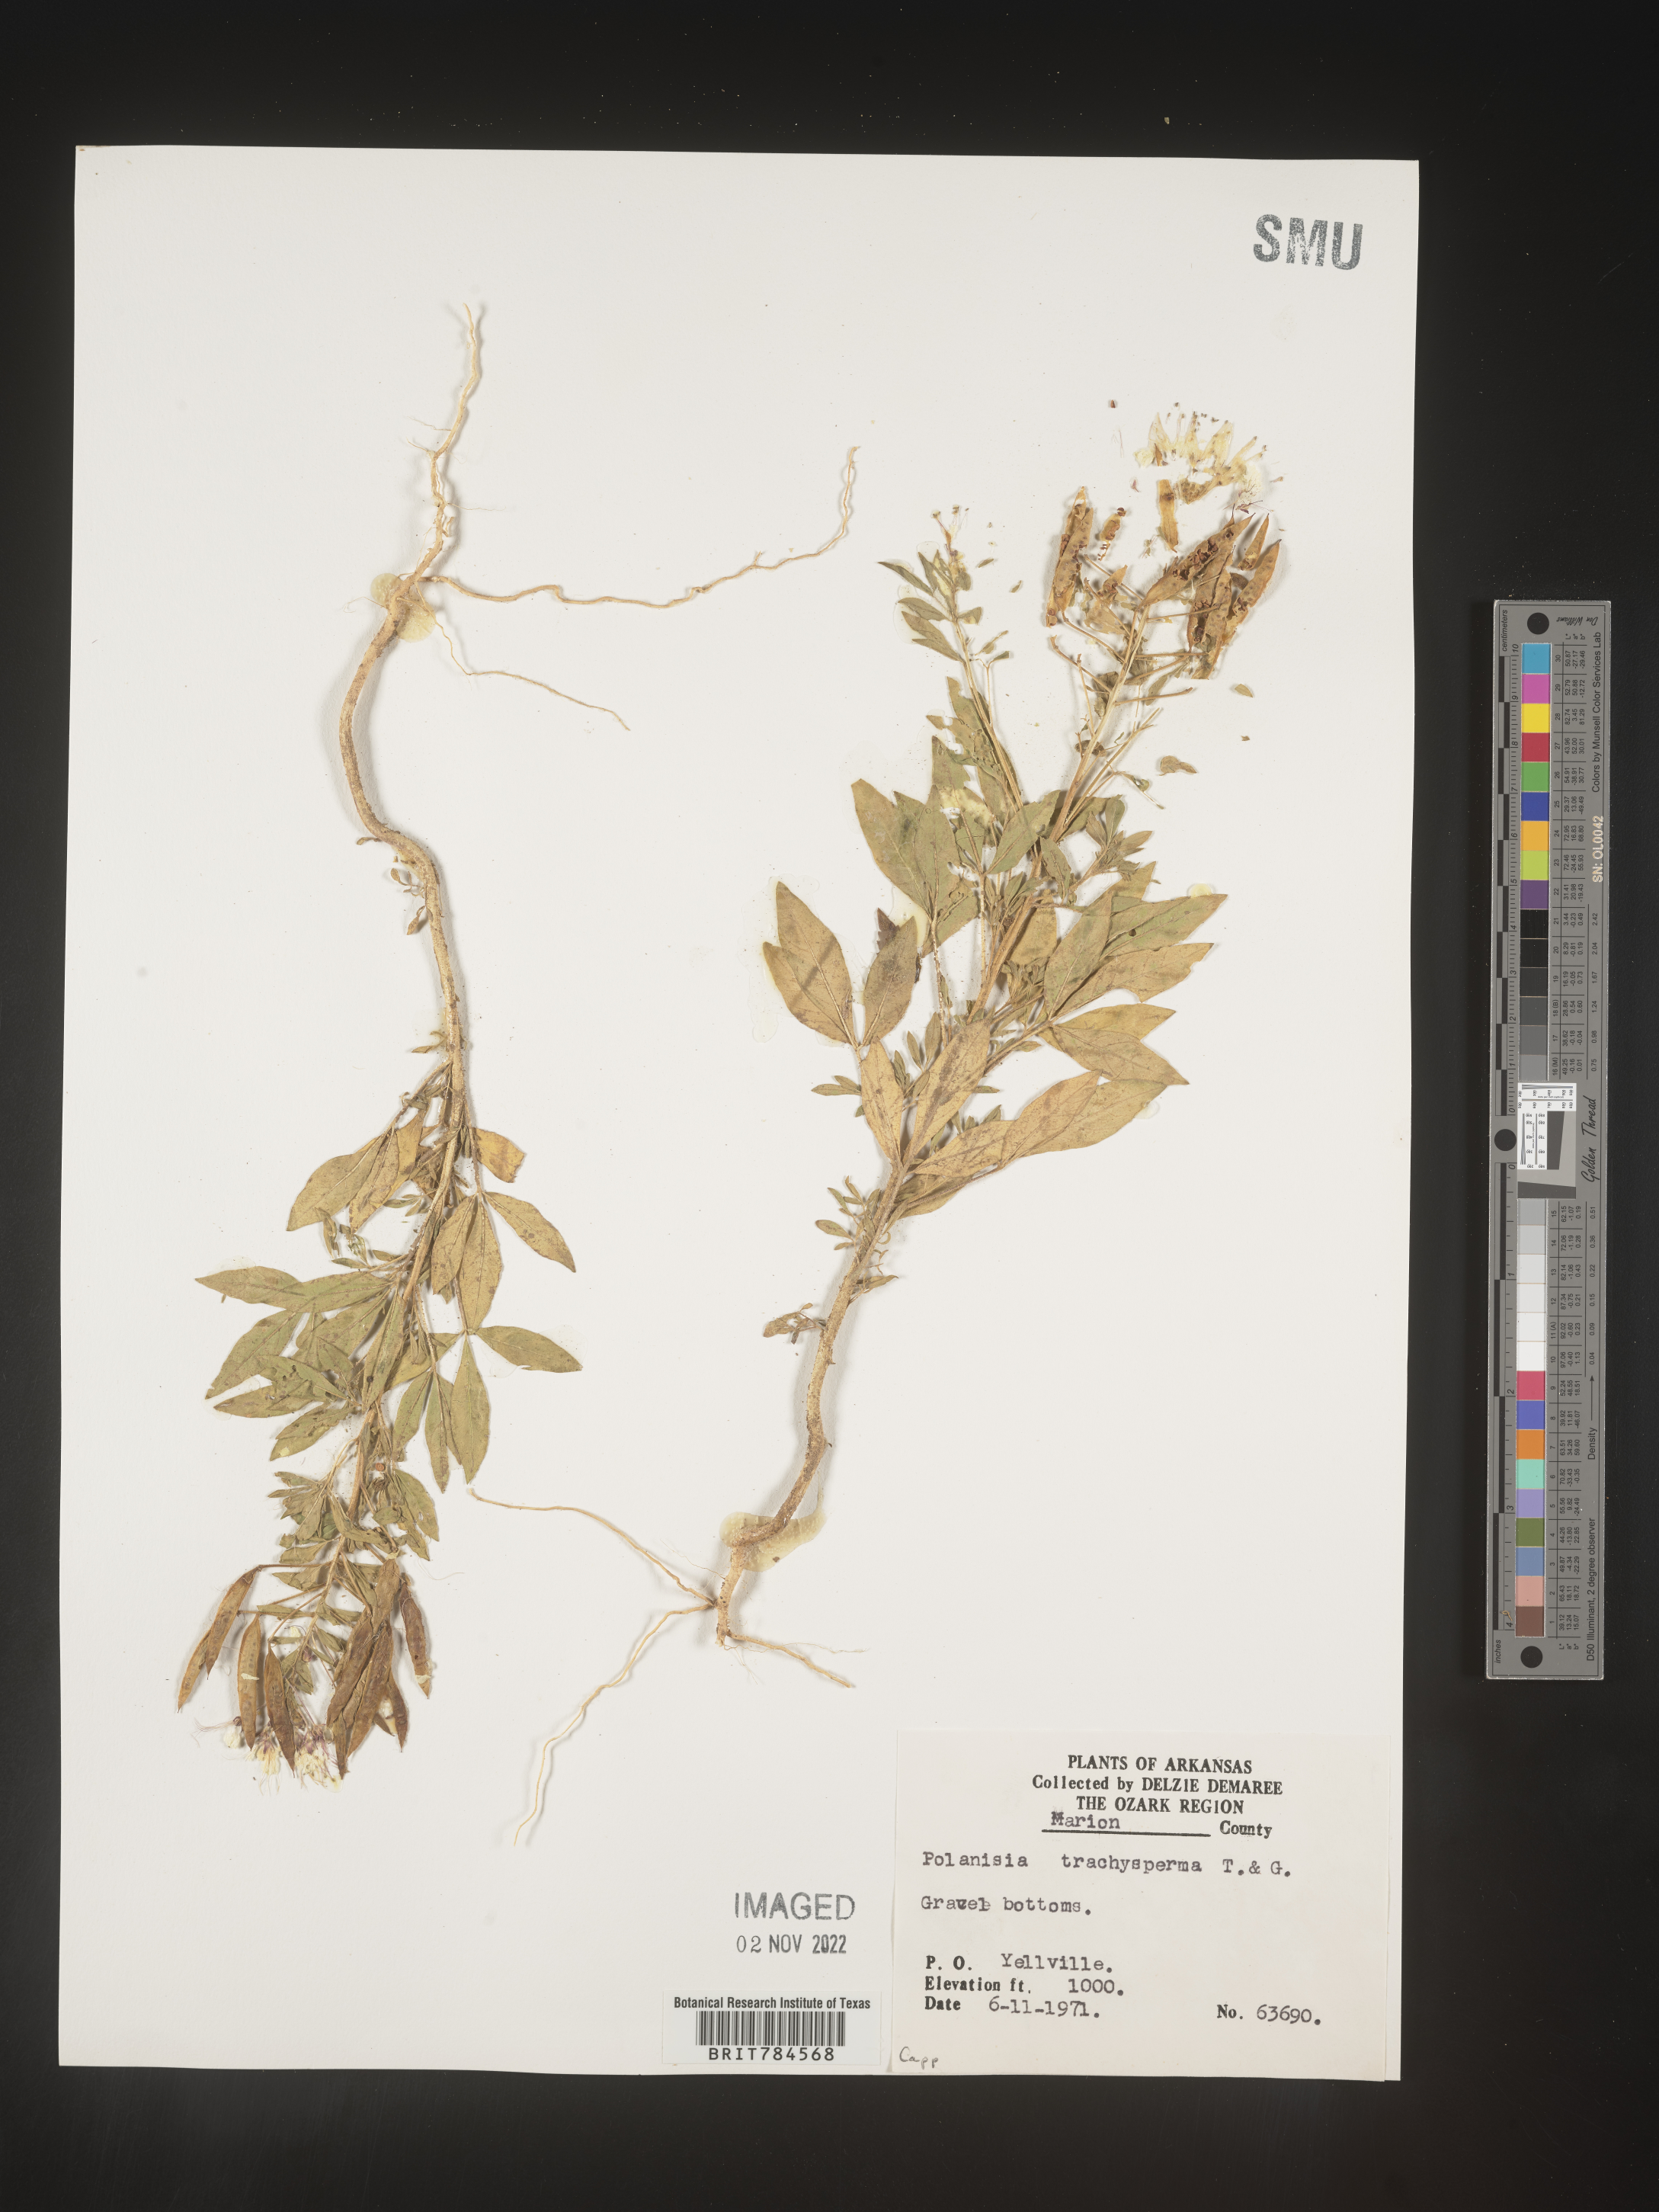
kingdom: Plantae
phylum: Tracheophyta
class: Magnoliopsida
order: Brassicales
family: Cleomaceae
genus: Polanisia
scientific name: Polanisia
